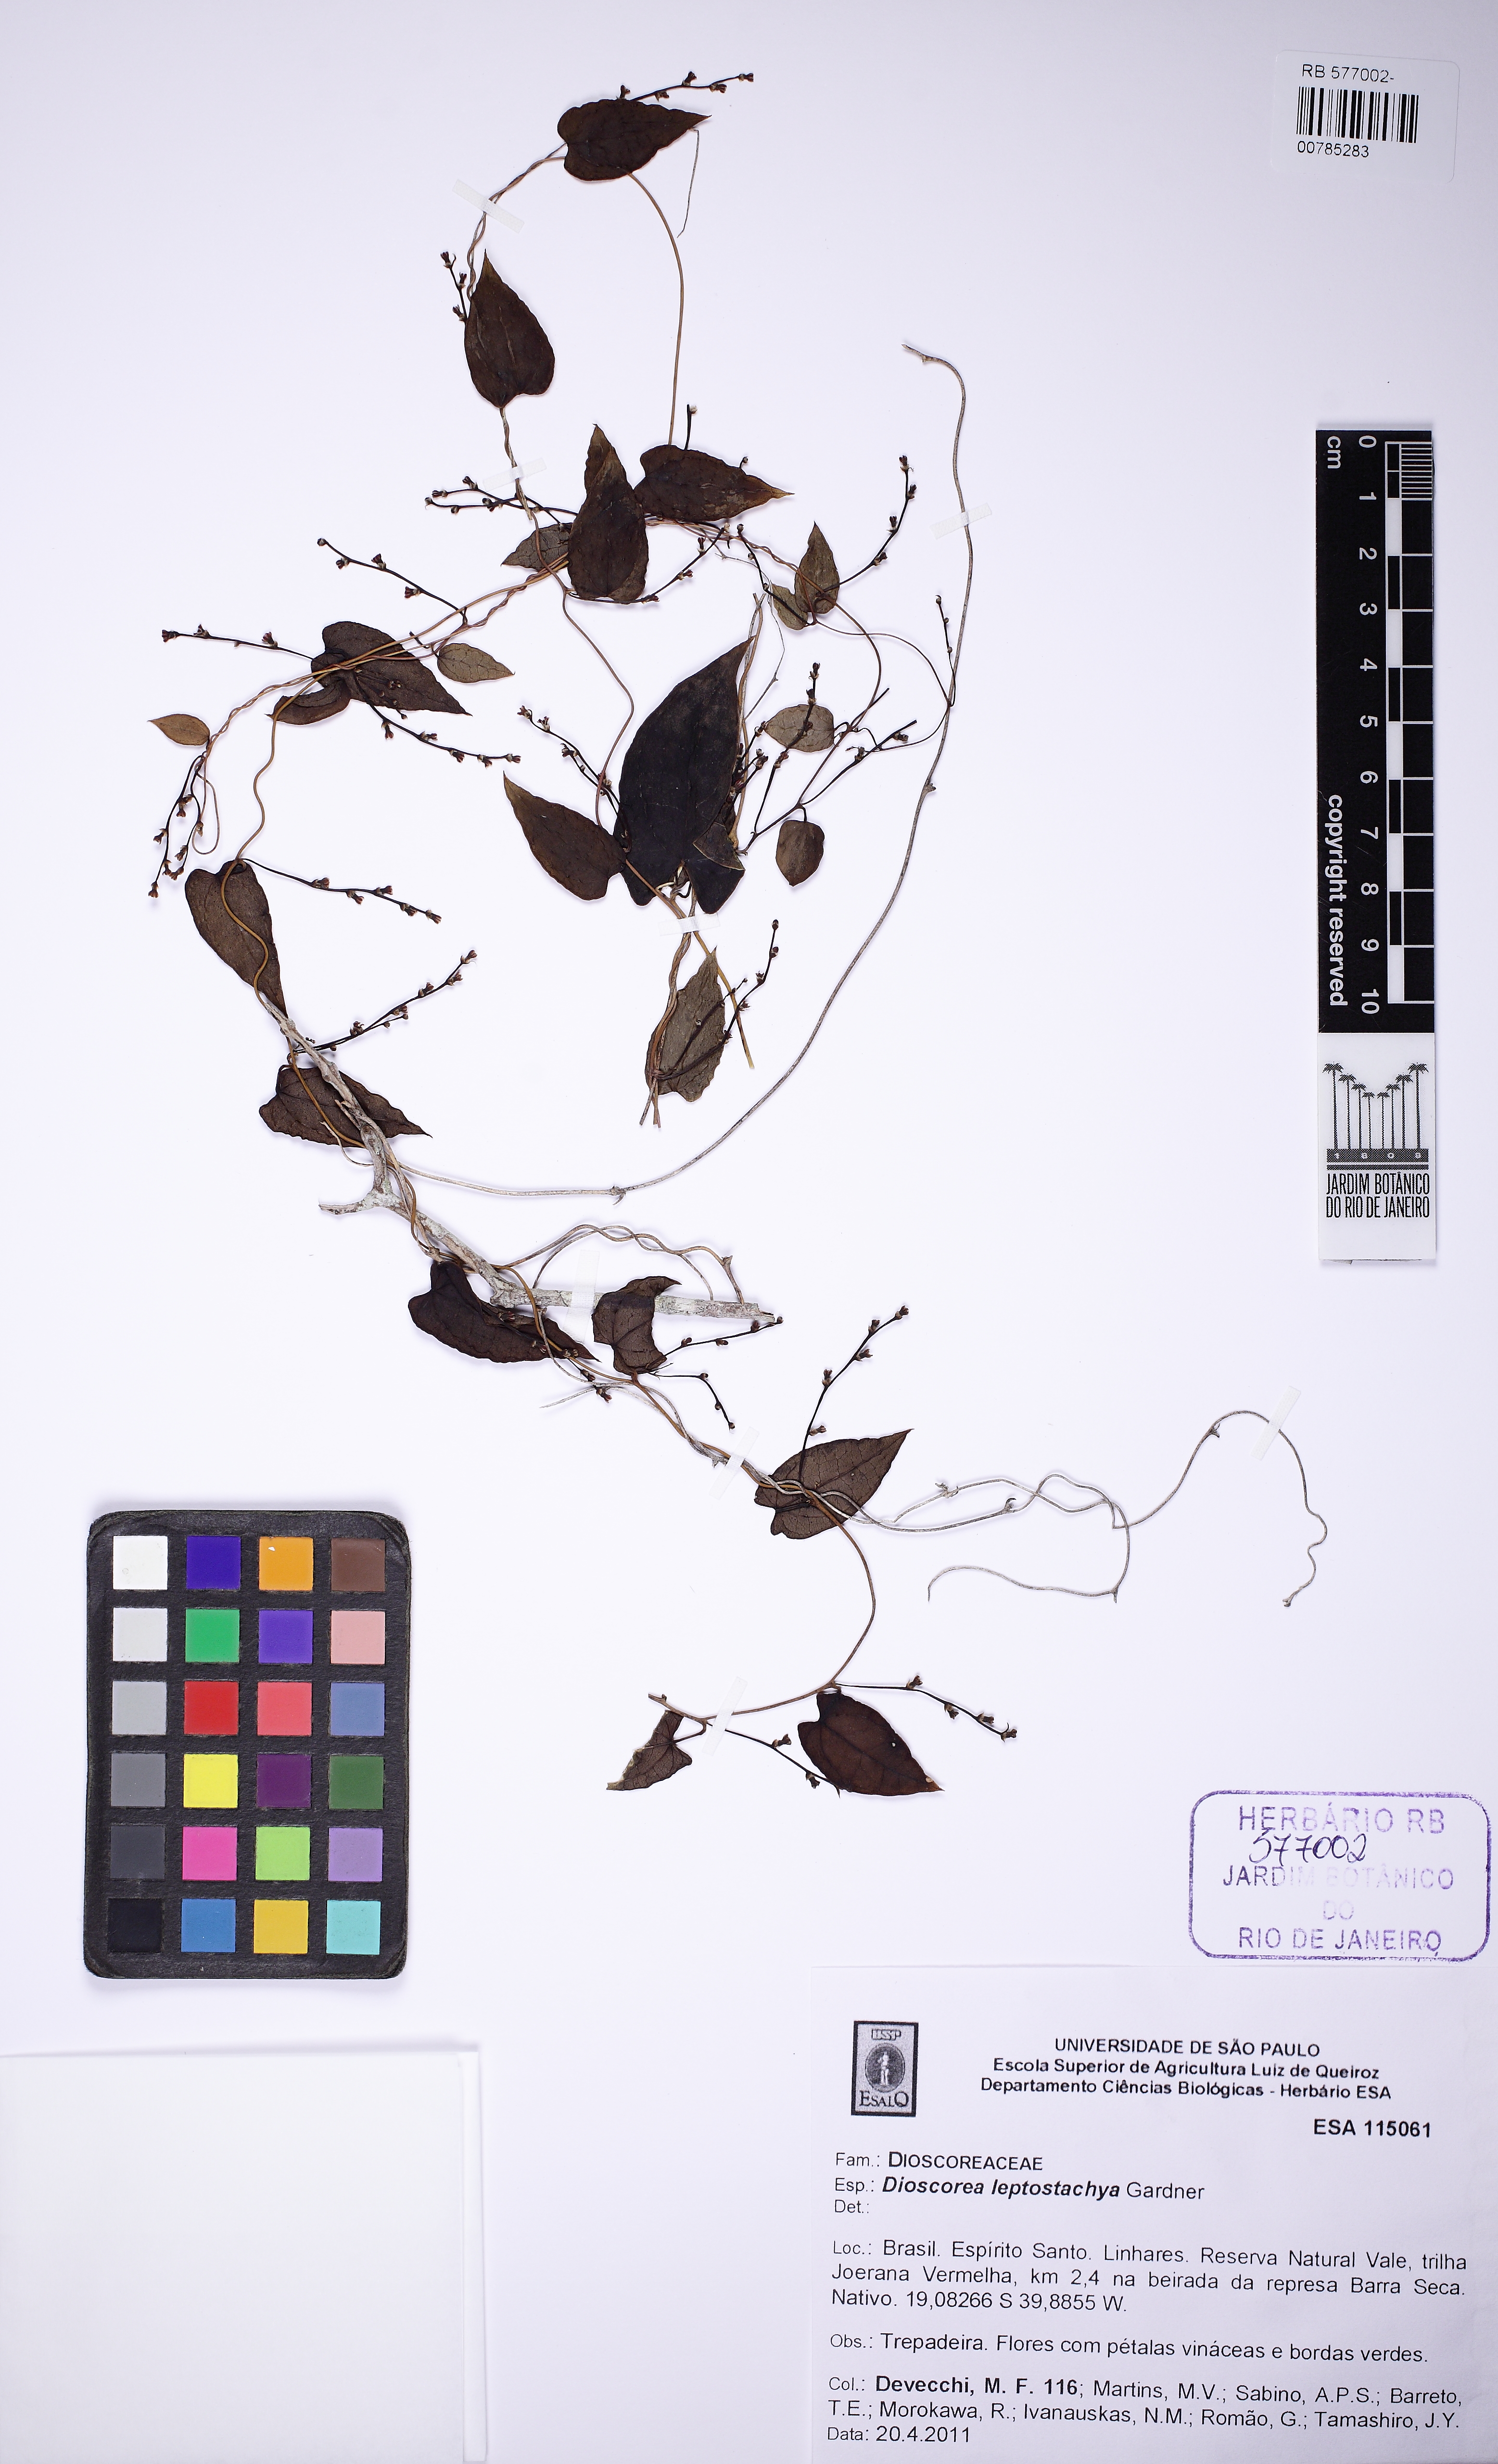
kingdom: Plantae
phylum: Tracheophyta
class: Liliopsida
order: Dioscoreales
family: Dioscoreaceae
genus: Dioscorea
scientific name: Dioscorea martiana
